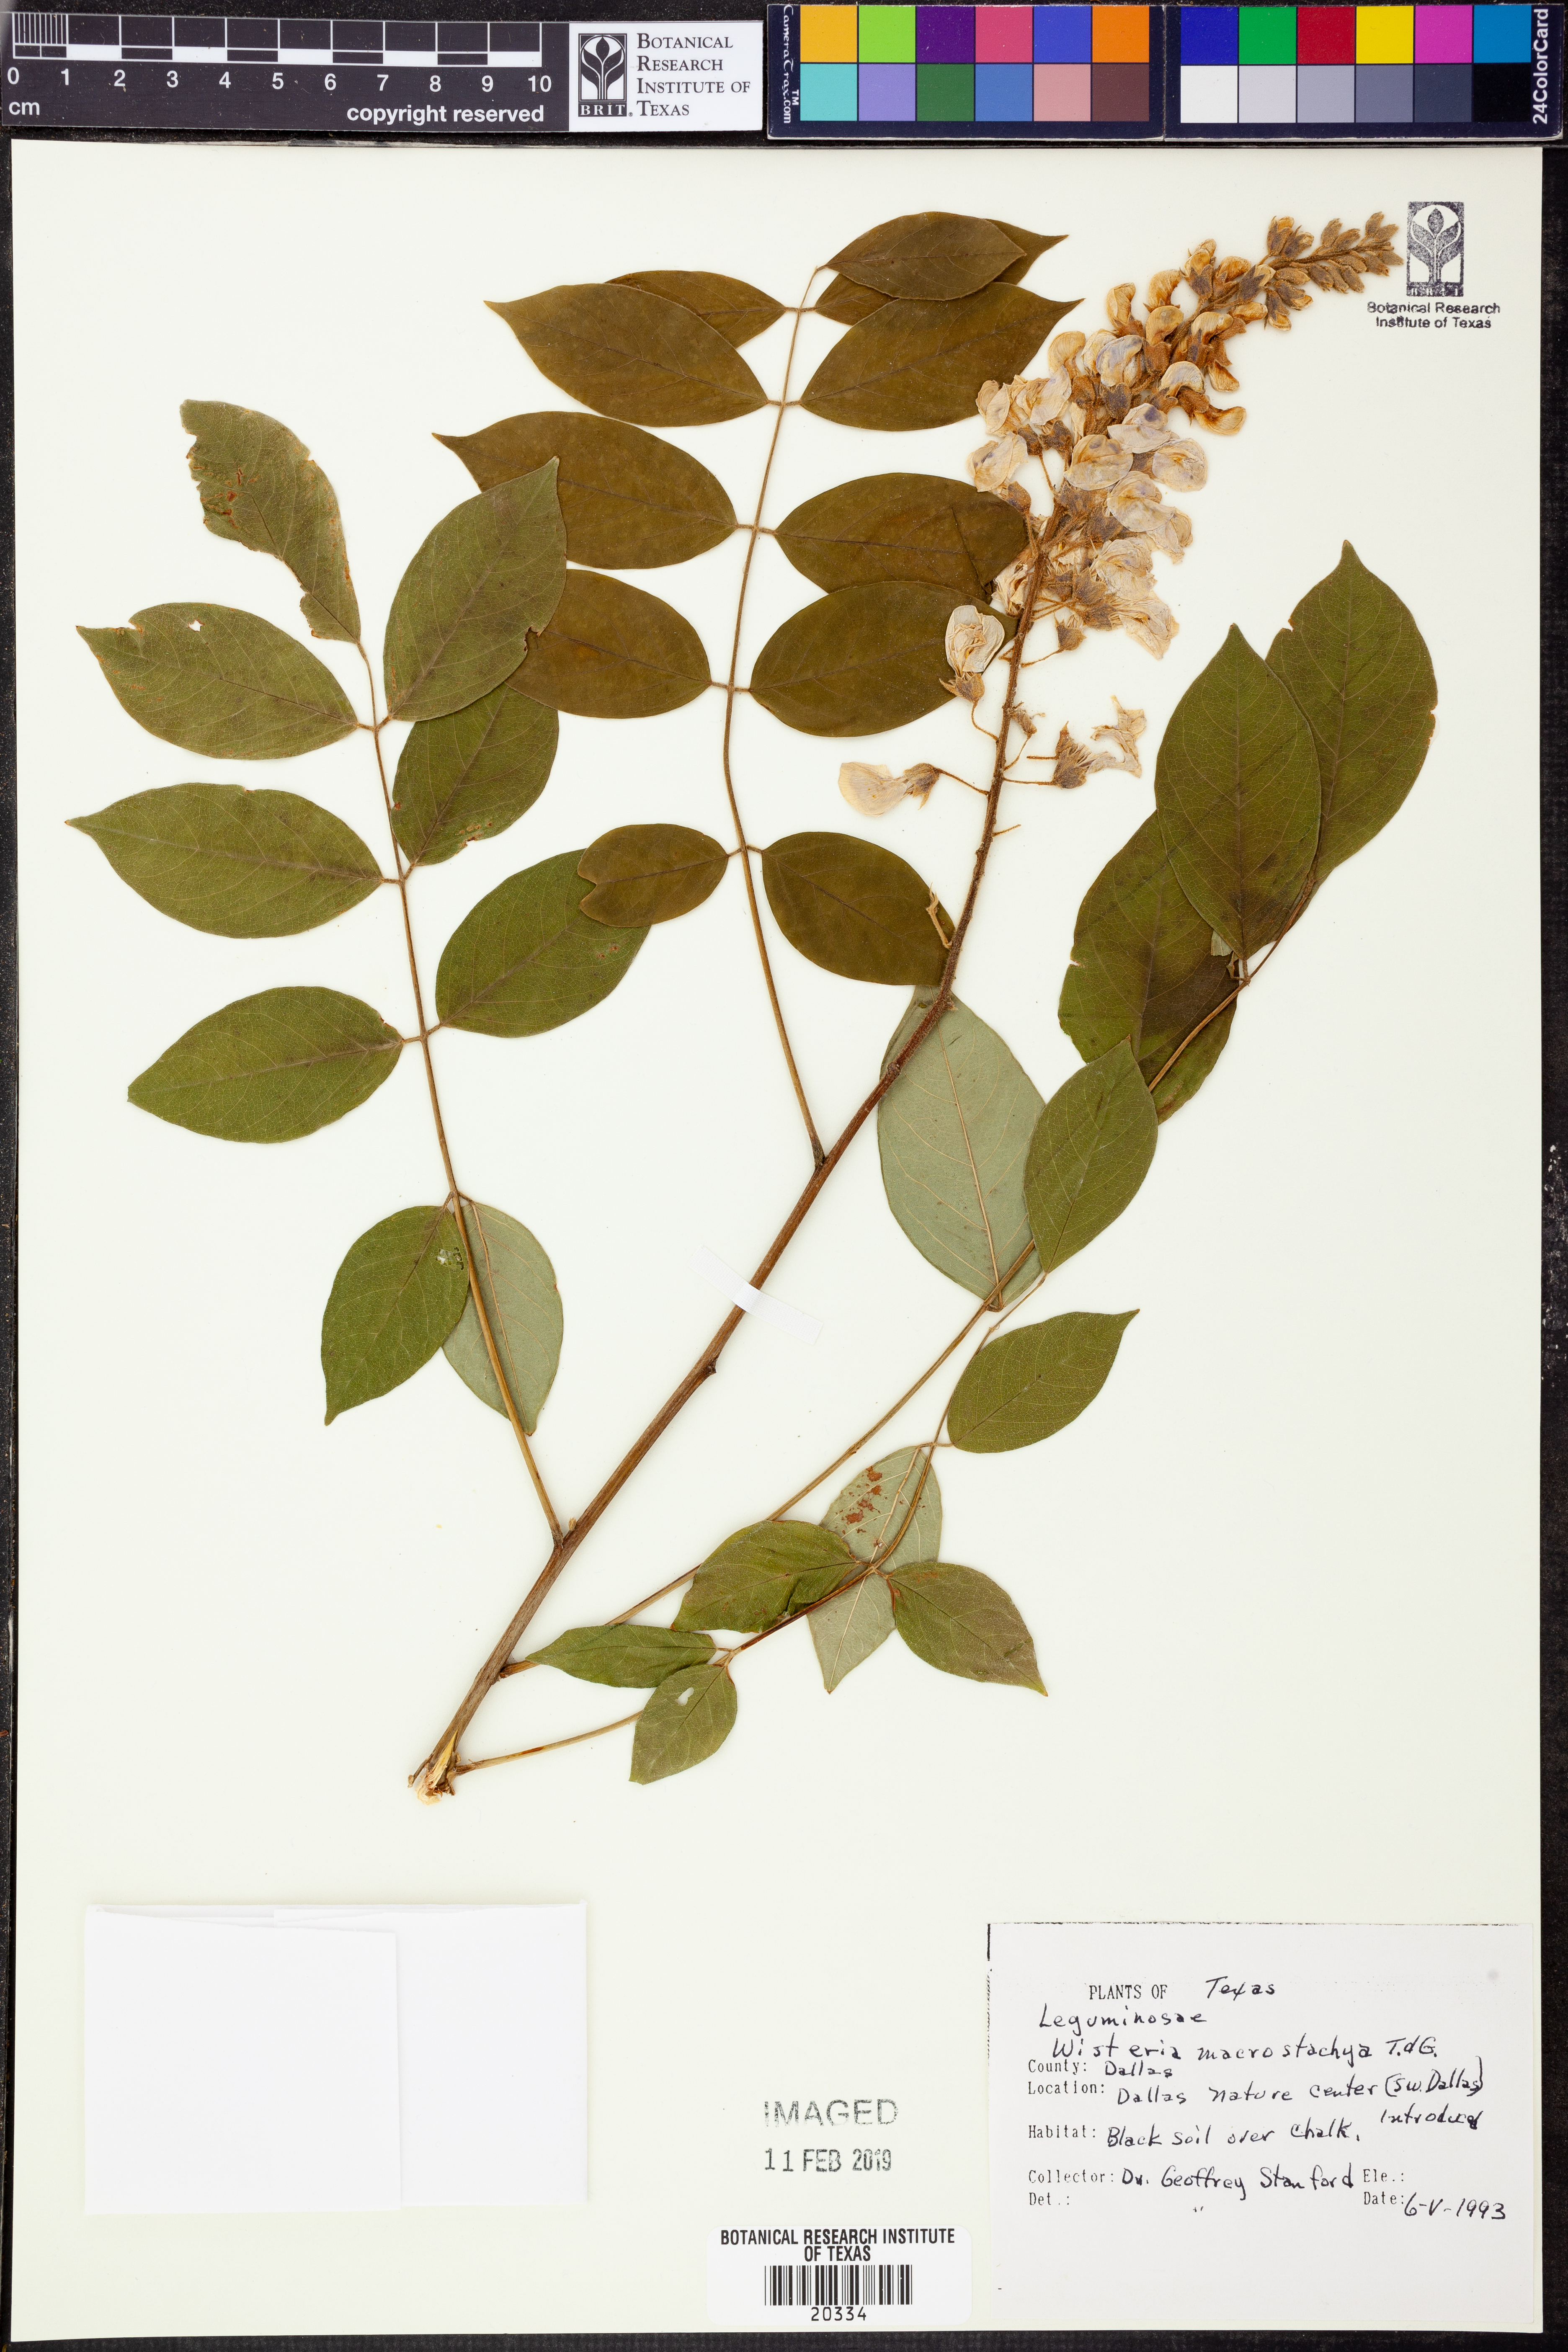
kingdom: Plantae
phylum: Tracheophyta
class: Magnoliopsida
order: Fabales
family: Fabaceae
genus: Wisteria
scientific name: Wisteria frutescens
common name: American wisteria
